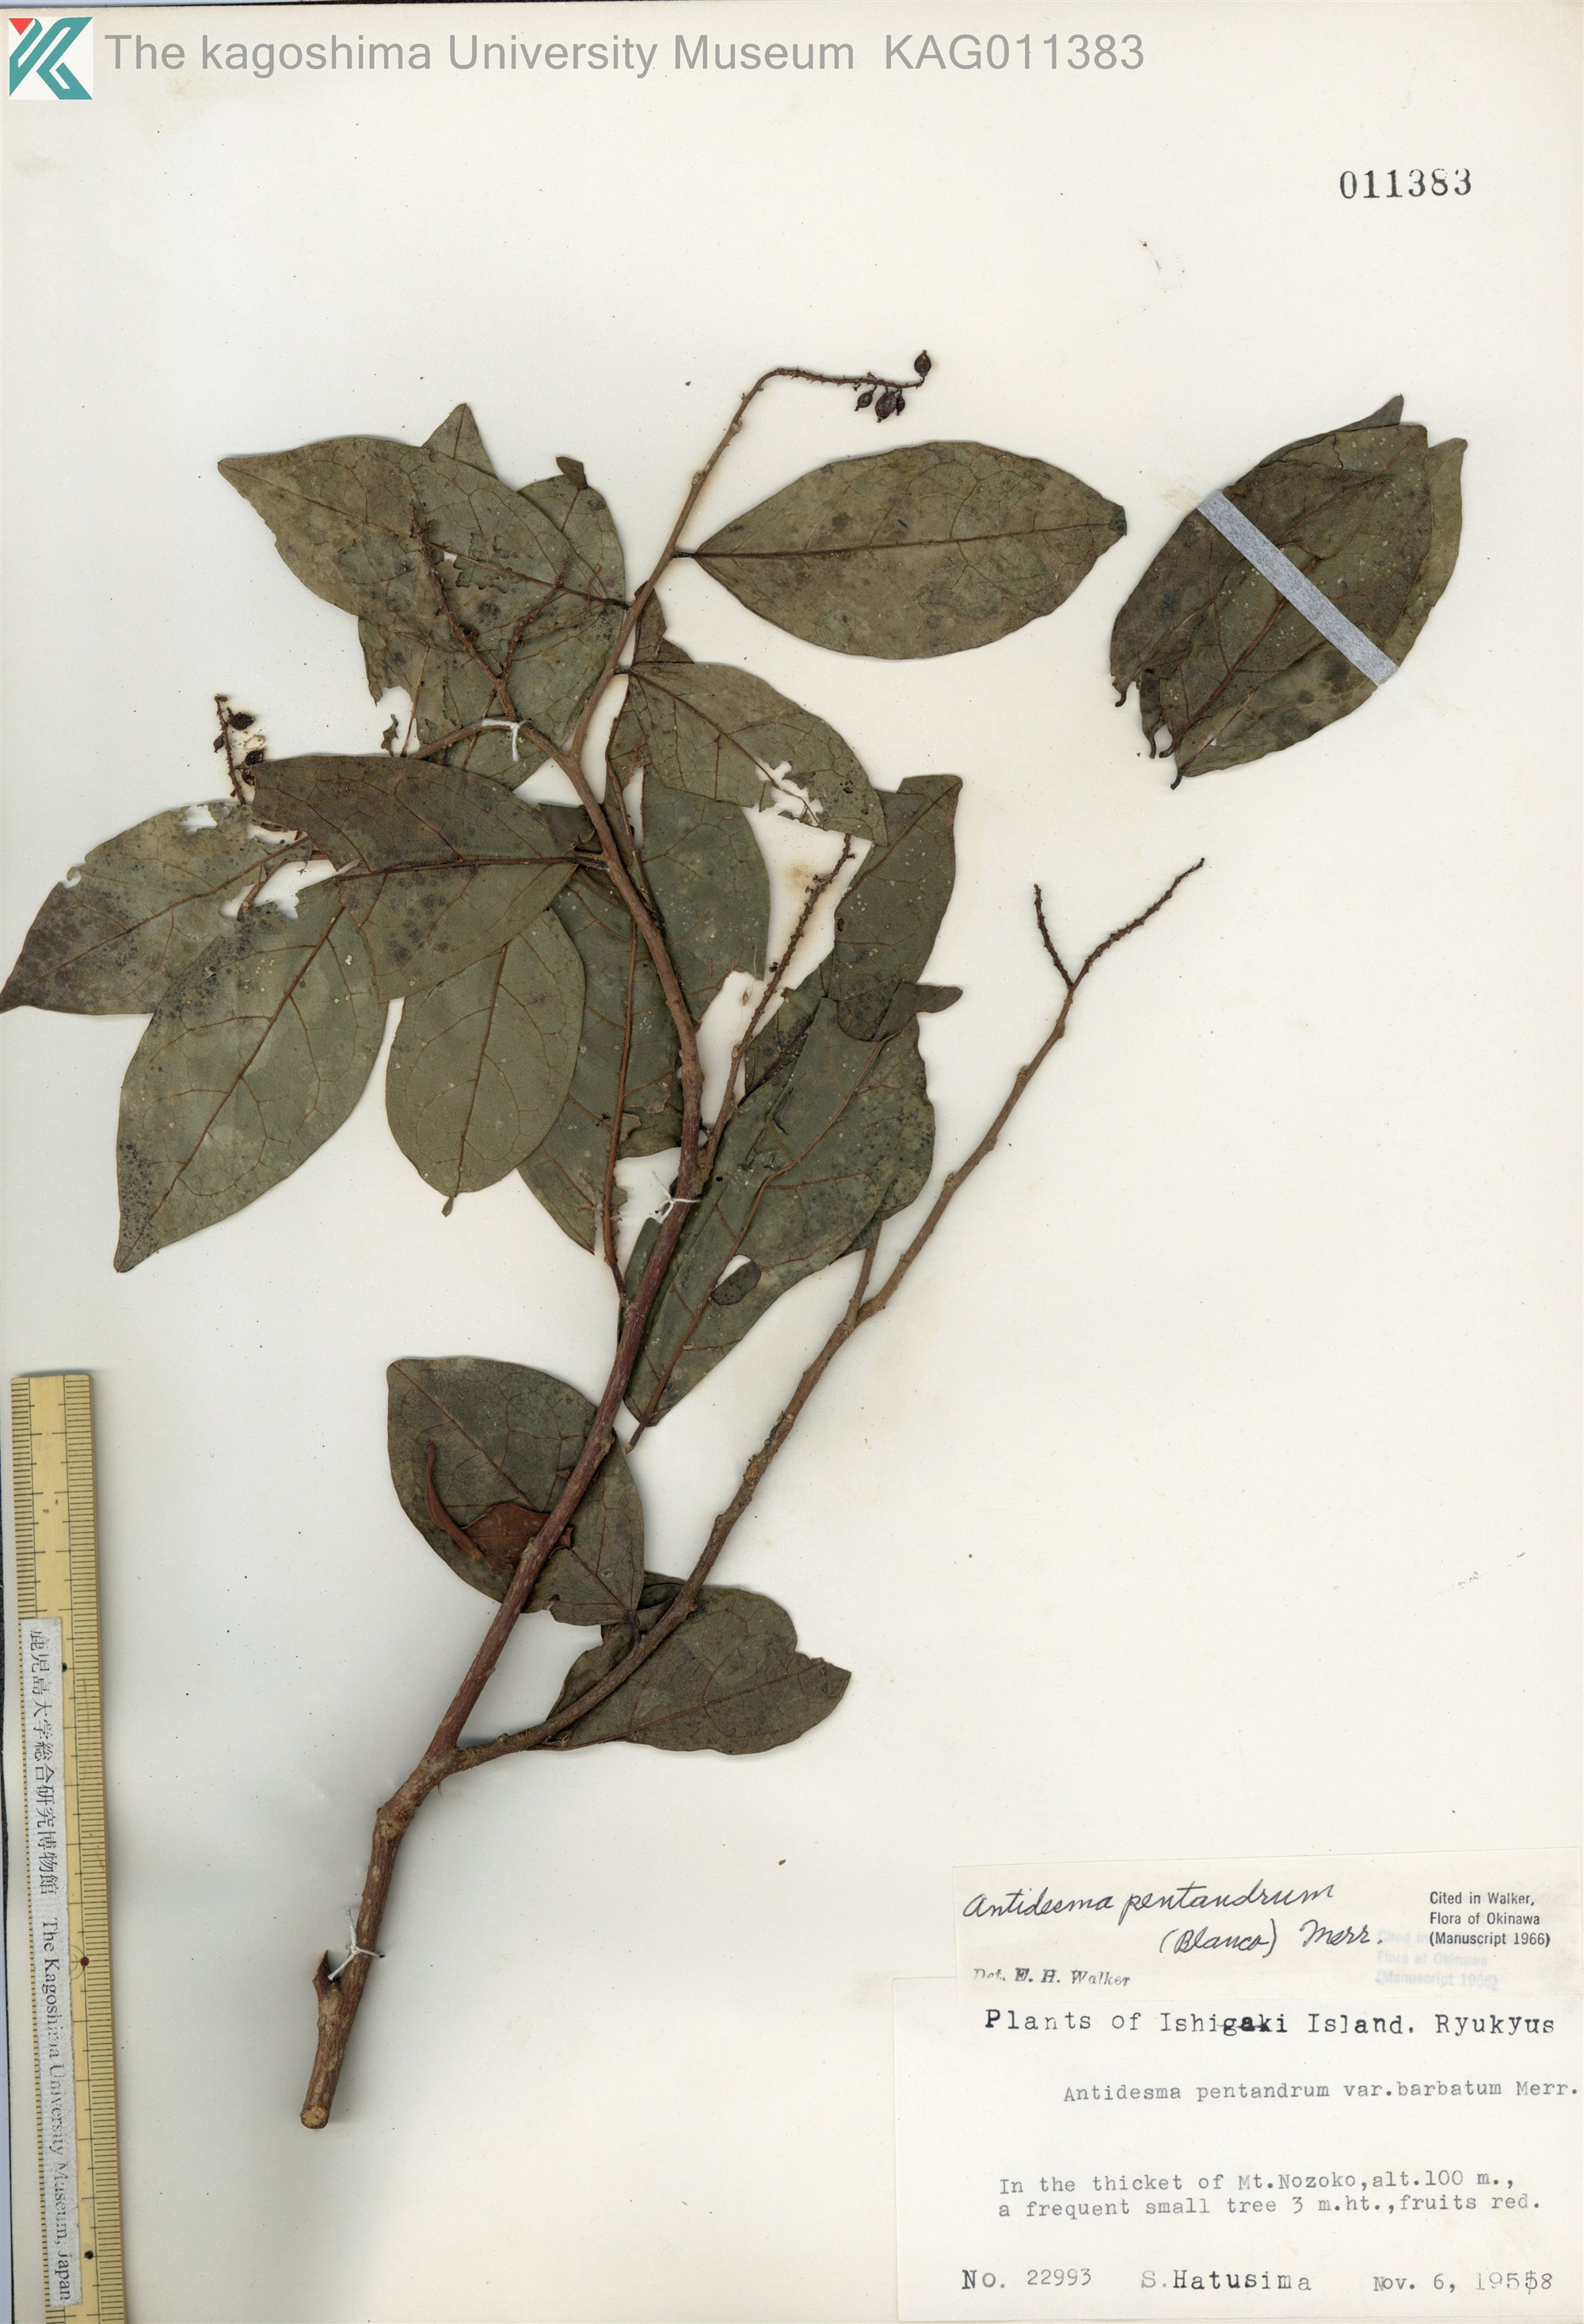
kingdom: Plantae
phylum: Tracheophyta
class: Magnoliopsida
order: Malpighiales
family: Phyllanthaceae
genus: Antidesma
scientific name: Antidesma montanum
